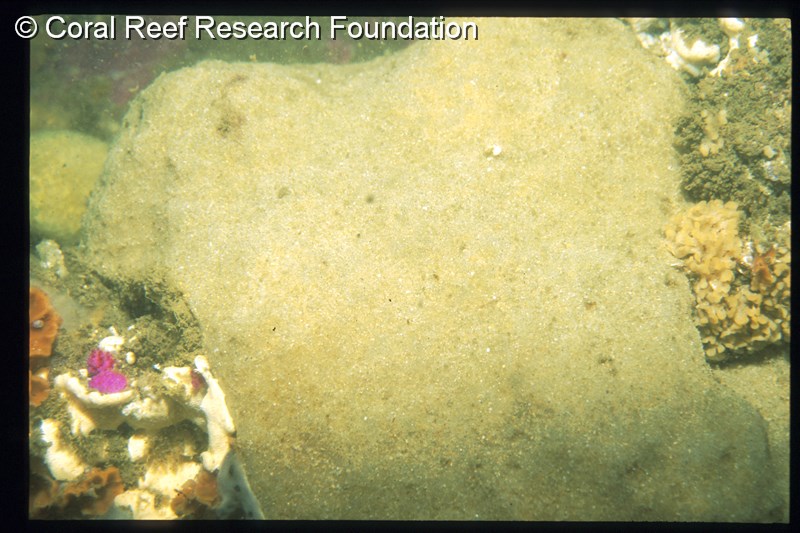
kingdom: Animalia
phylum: Chordata
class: Ascidiacea
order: Aplousobranchia
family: Polyclinidae
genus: Aplidium
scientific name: Aplidium
